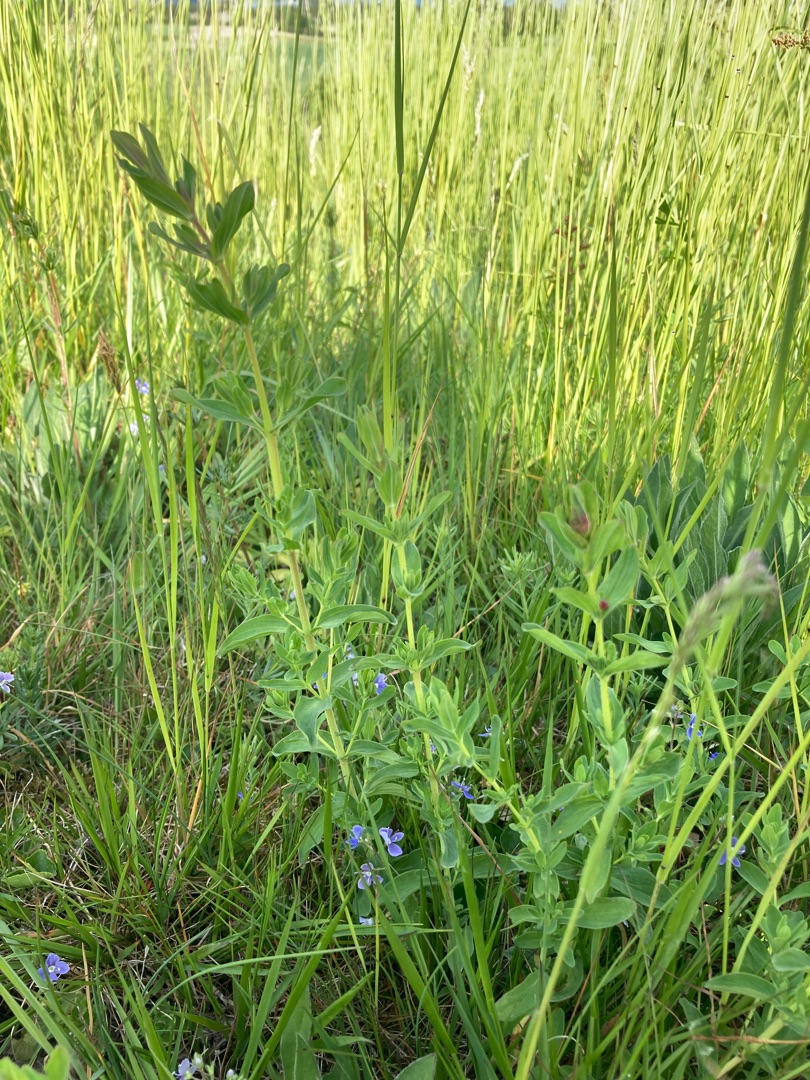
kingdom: Plantae
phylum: Tracheophyta
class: Magnoliopsida
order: Malpighiales
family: Hypericaceae
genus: Hypericum
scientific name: Hypericum perforatum
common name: Prikbladet perikon
